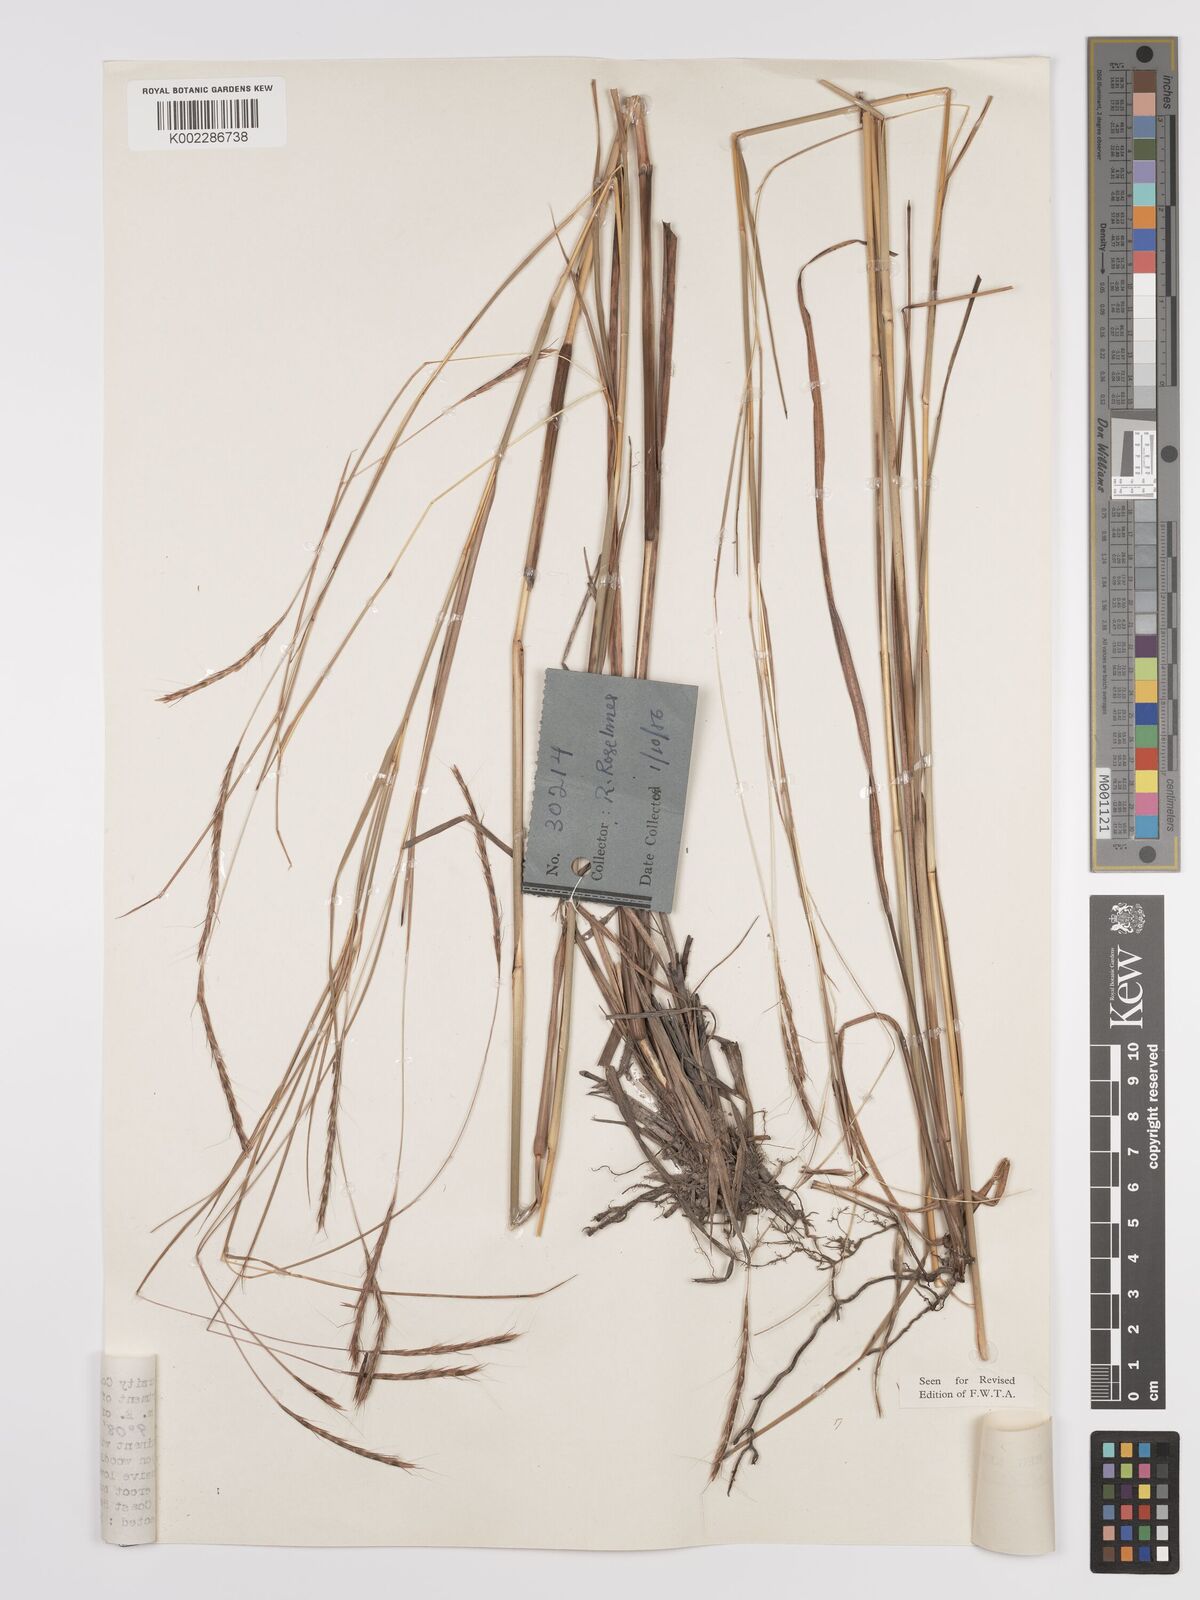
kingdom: Plantae
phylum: Tracheophyta
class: Liliopsida
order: Poales
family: Poaceae
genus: Andropogon
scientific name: Andropogon schweinfurthii
